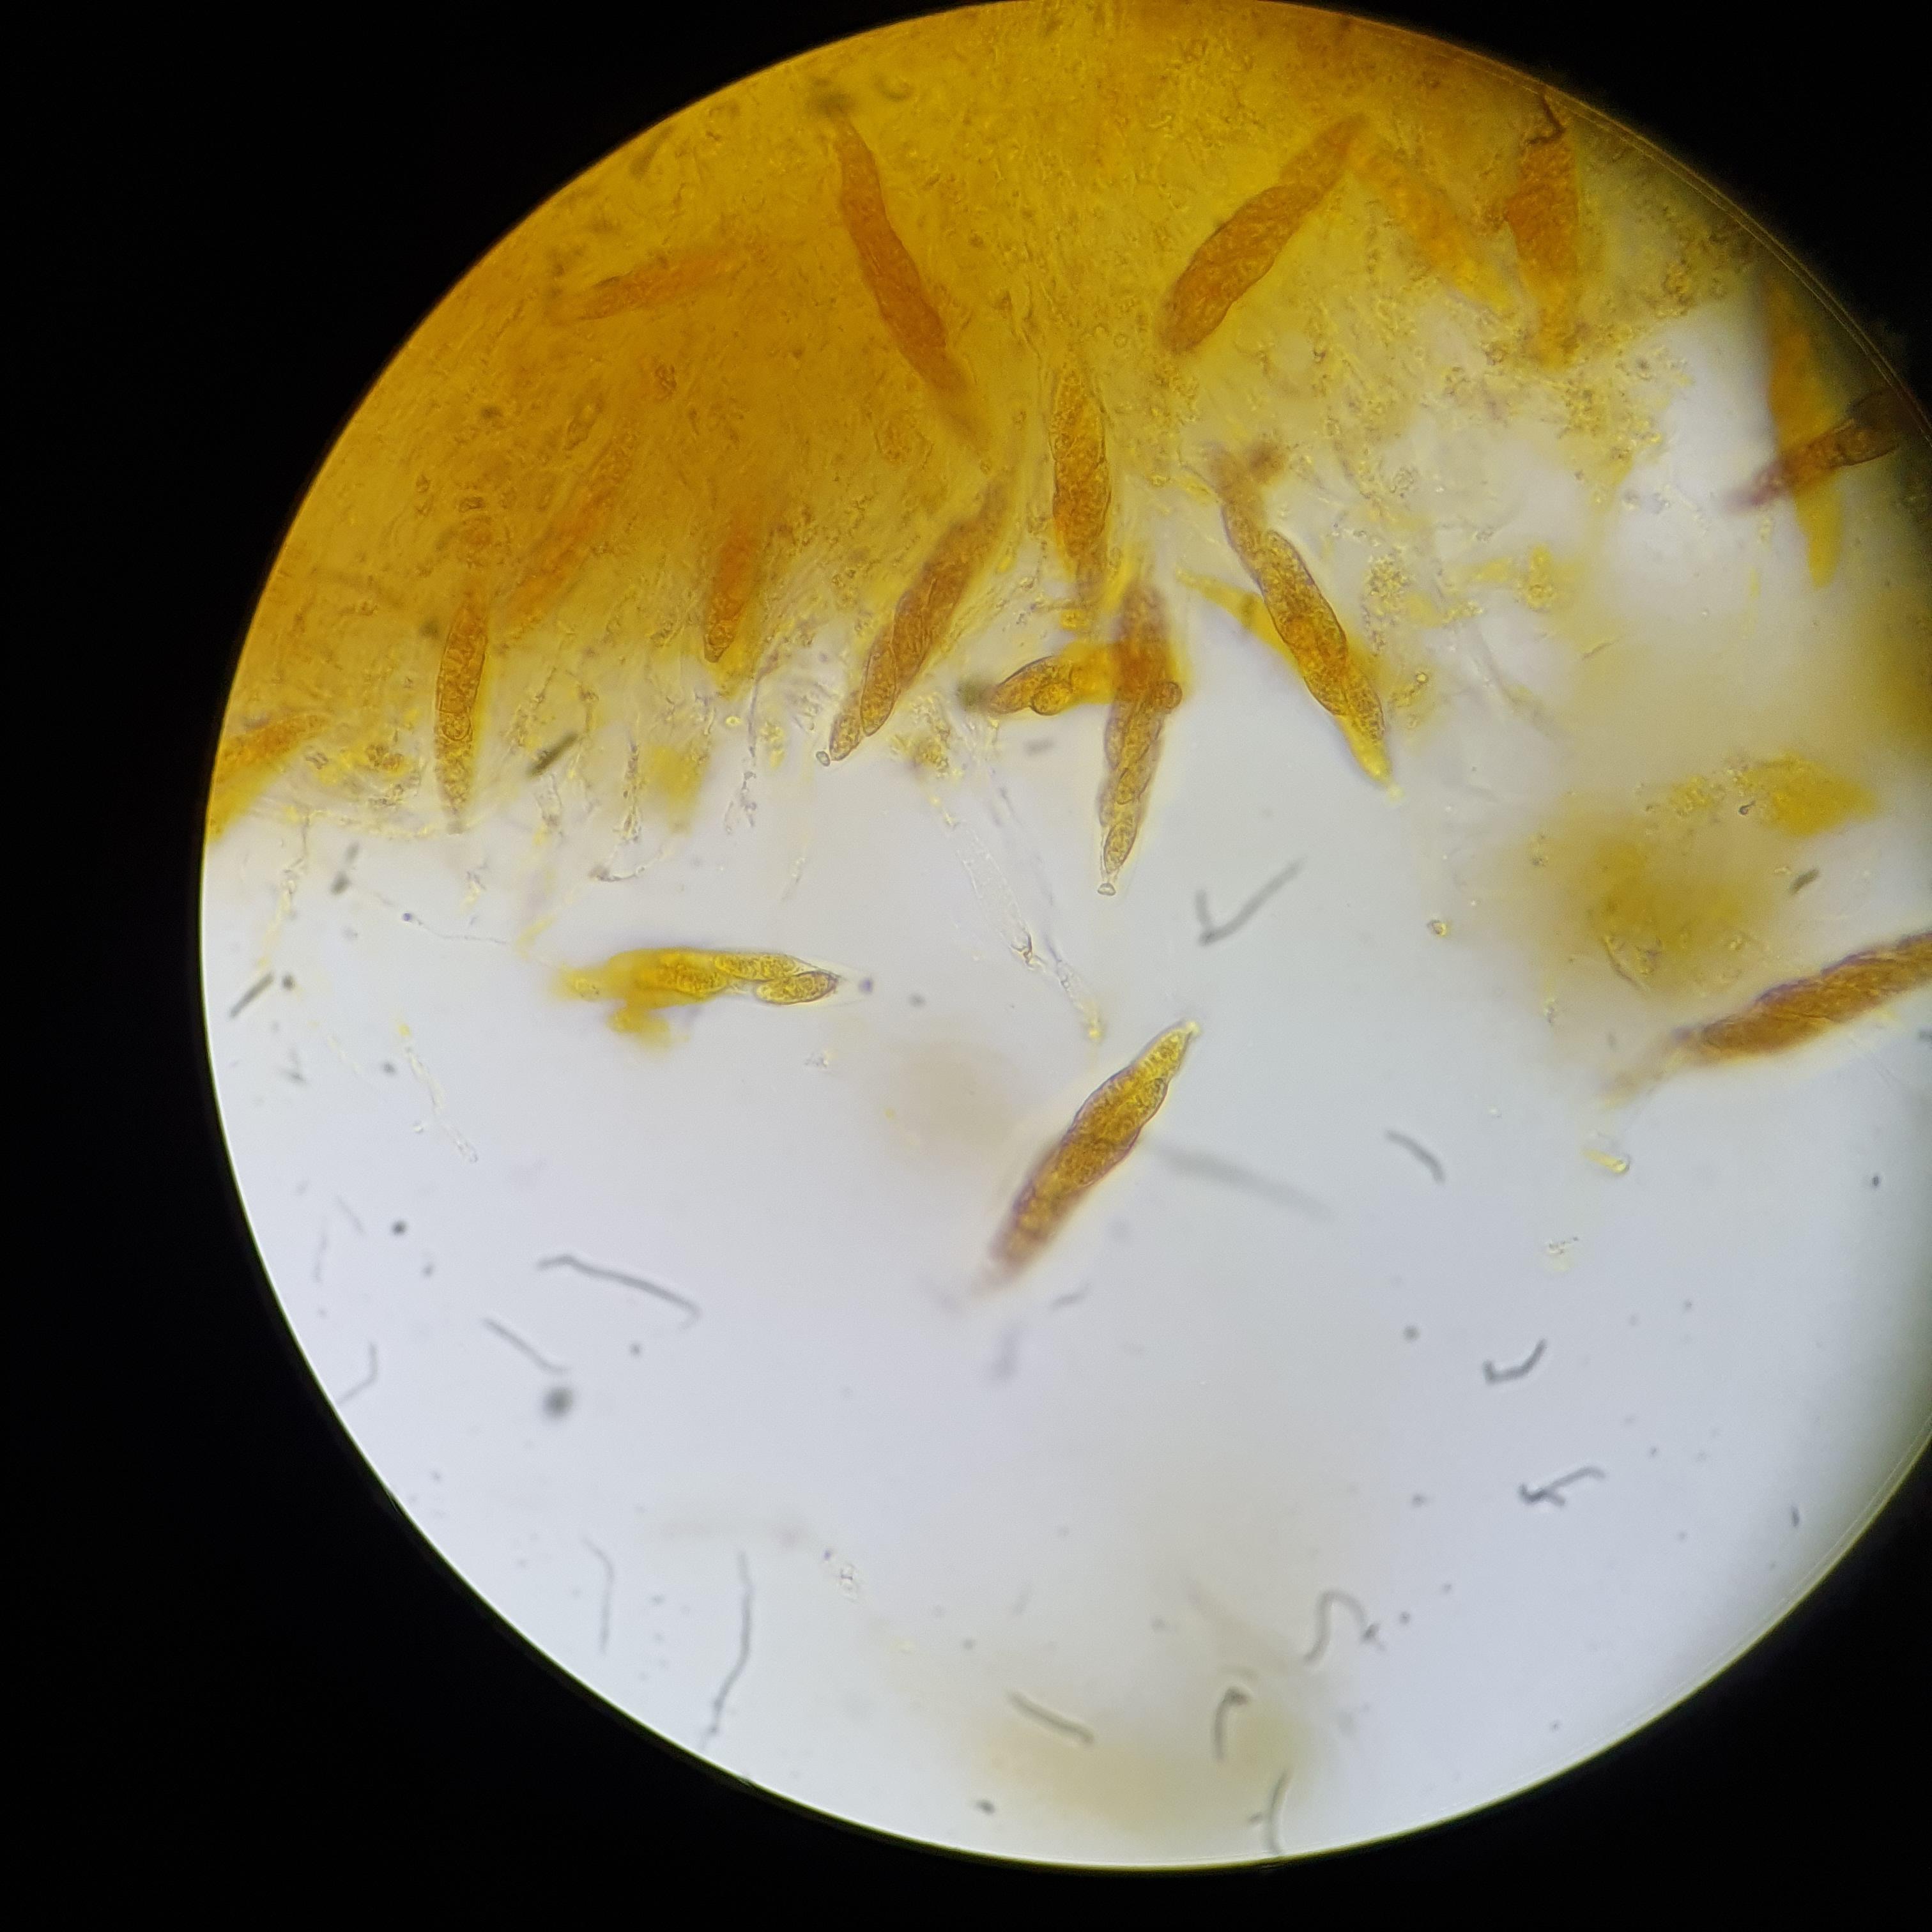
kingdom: Fungi
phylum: Ascomycota
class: Sordariomycetes
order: Diaporthales
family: Diaporthaceae
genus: Diaporthe
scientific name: Diaporthe circumscripta
